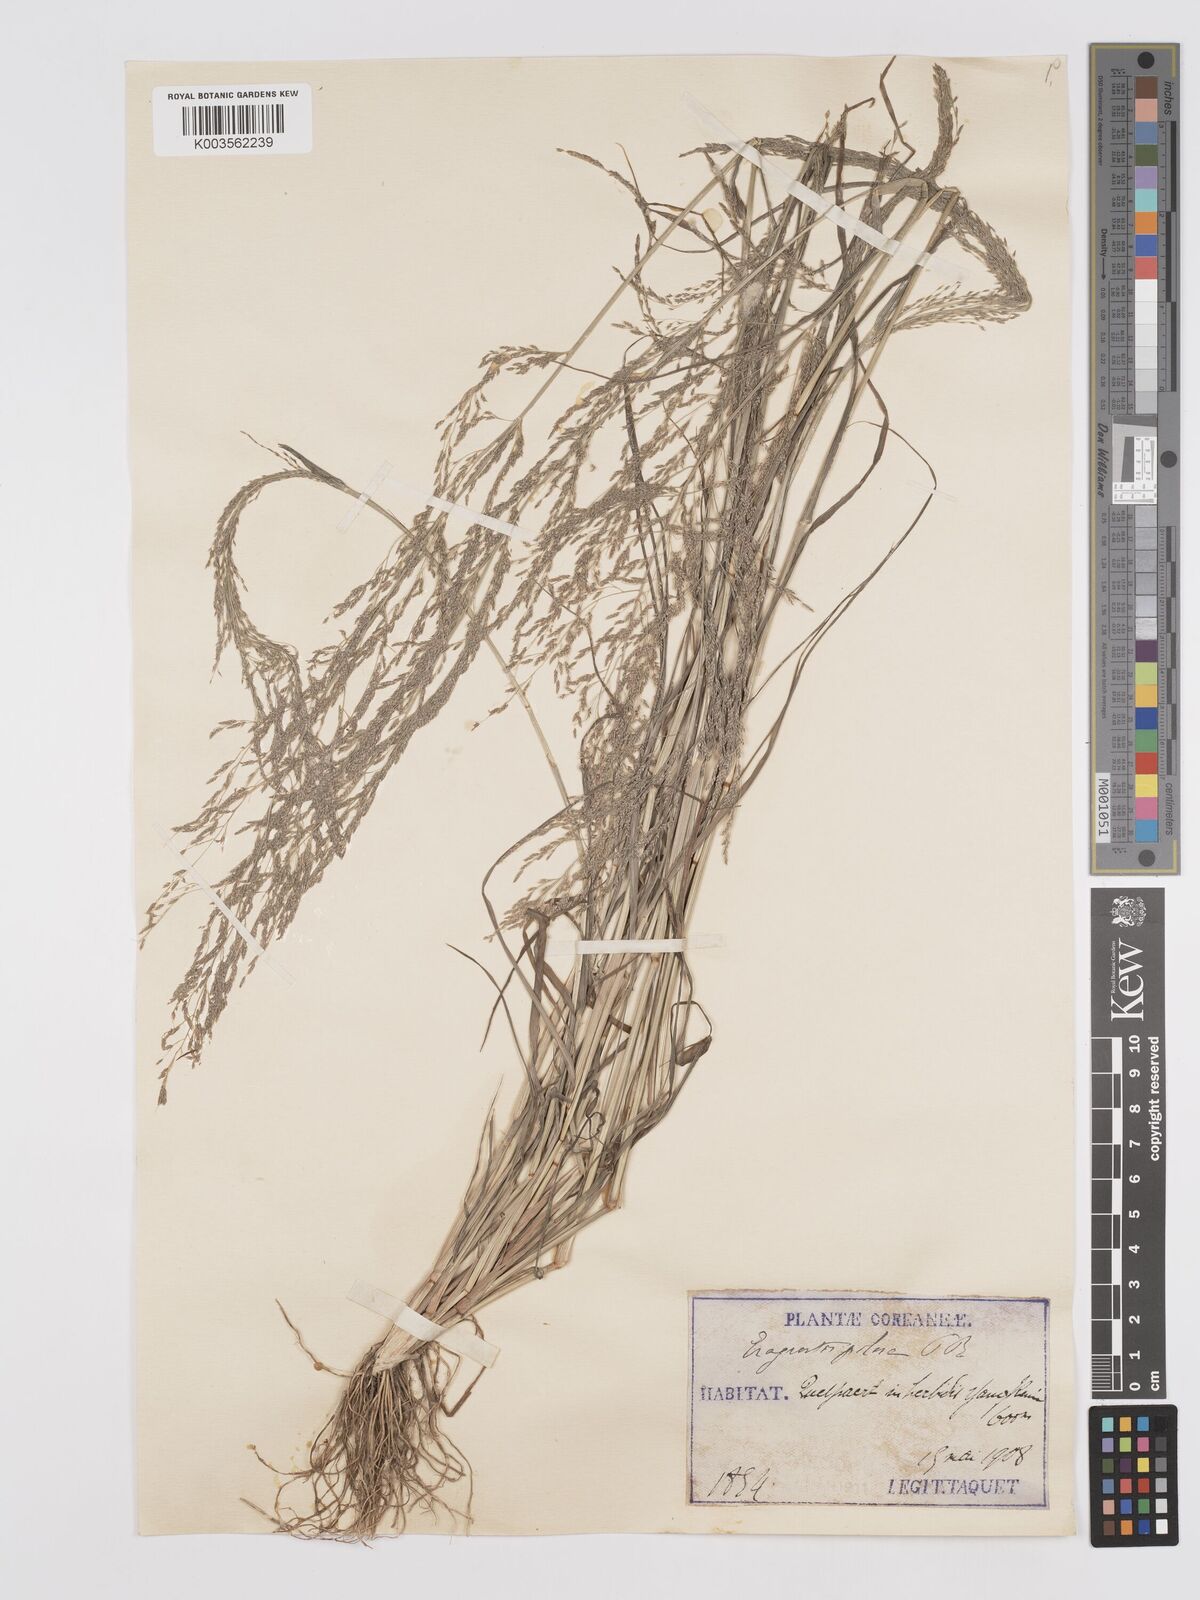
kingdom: Plantae
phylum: Tracheophyta
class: Liliopsida
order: Poales
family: Poaceae
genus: Eragrostis
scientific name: Eragrostis pilosa
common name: Indian lovegrass
